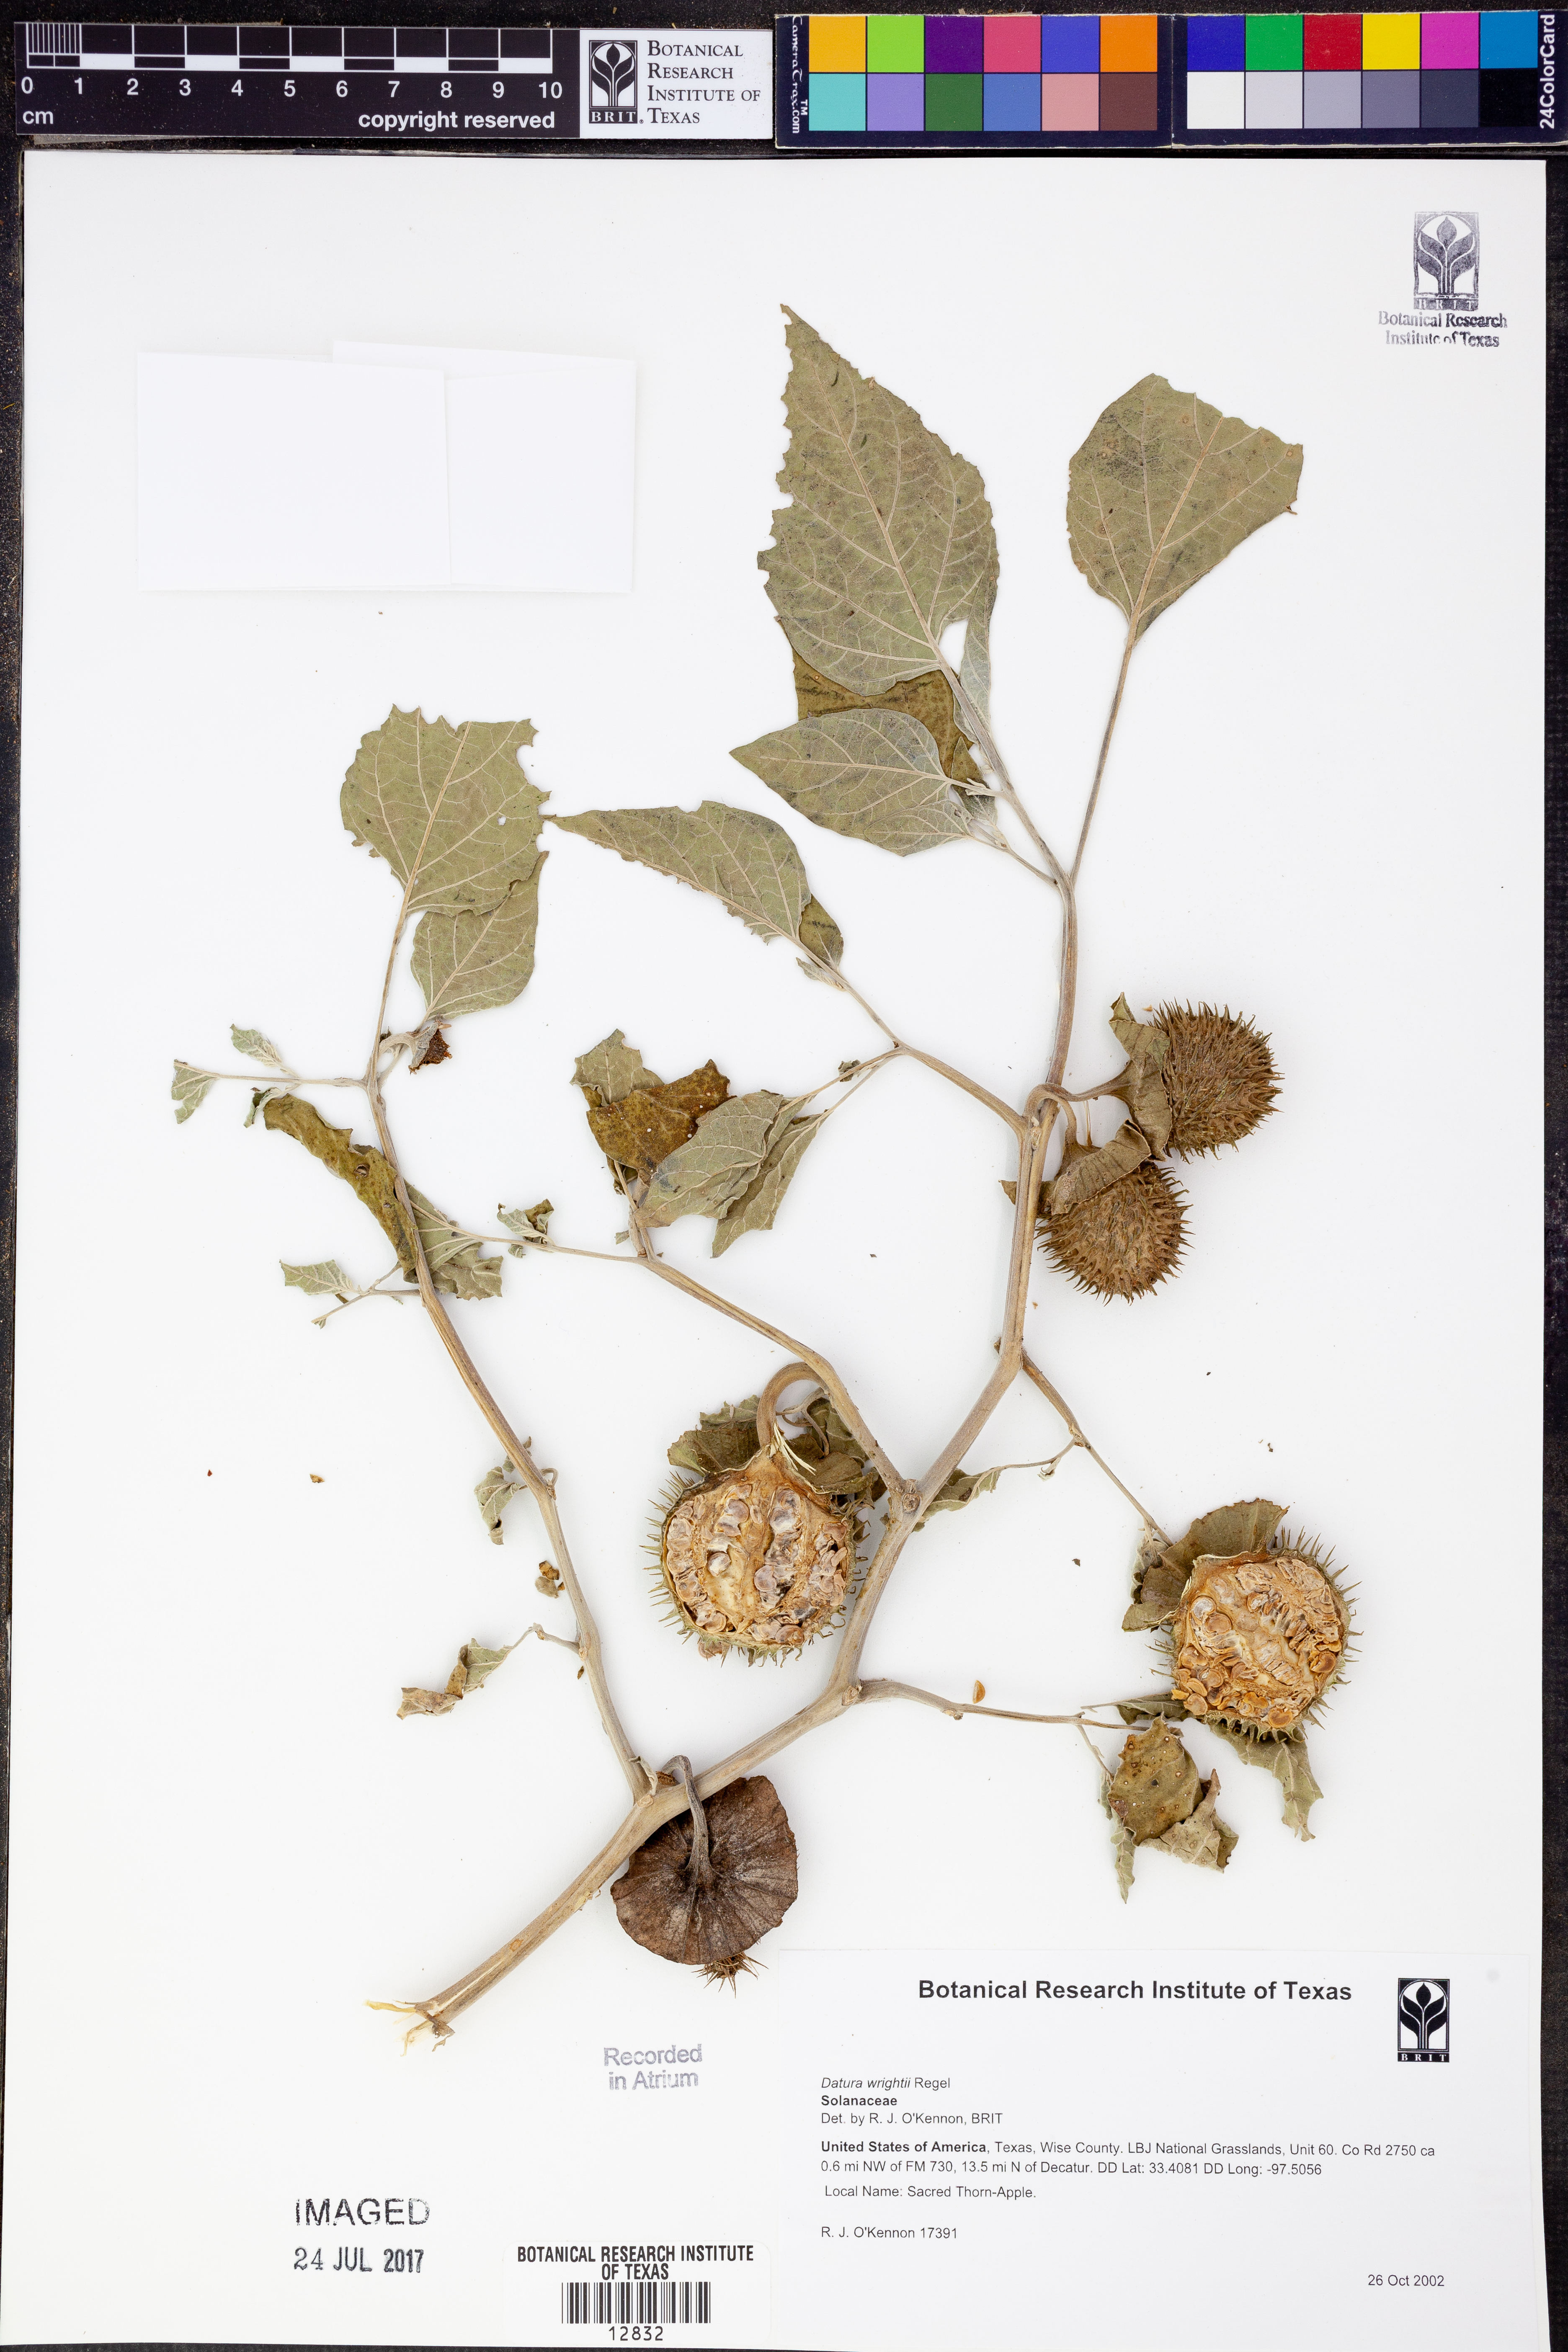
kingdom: Plantae
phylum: Tracheophyta
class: Magnoliopsida
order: Solanales
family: Solanaceae
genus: Datura
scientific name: Datura wrightii
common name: Sacred thorn-apple
